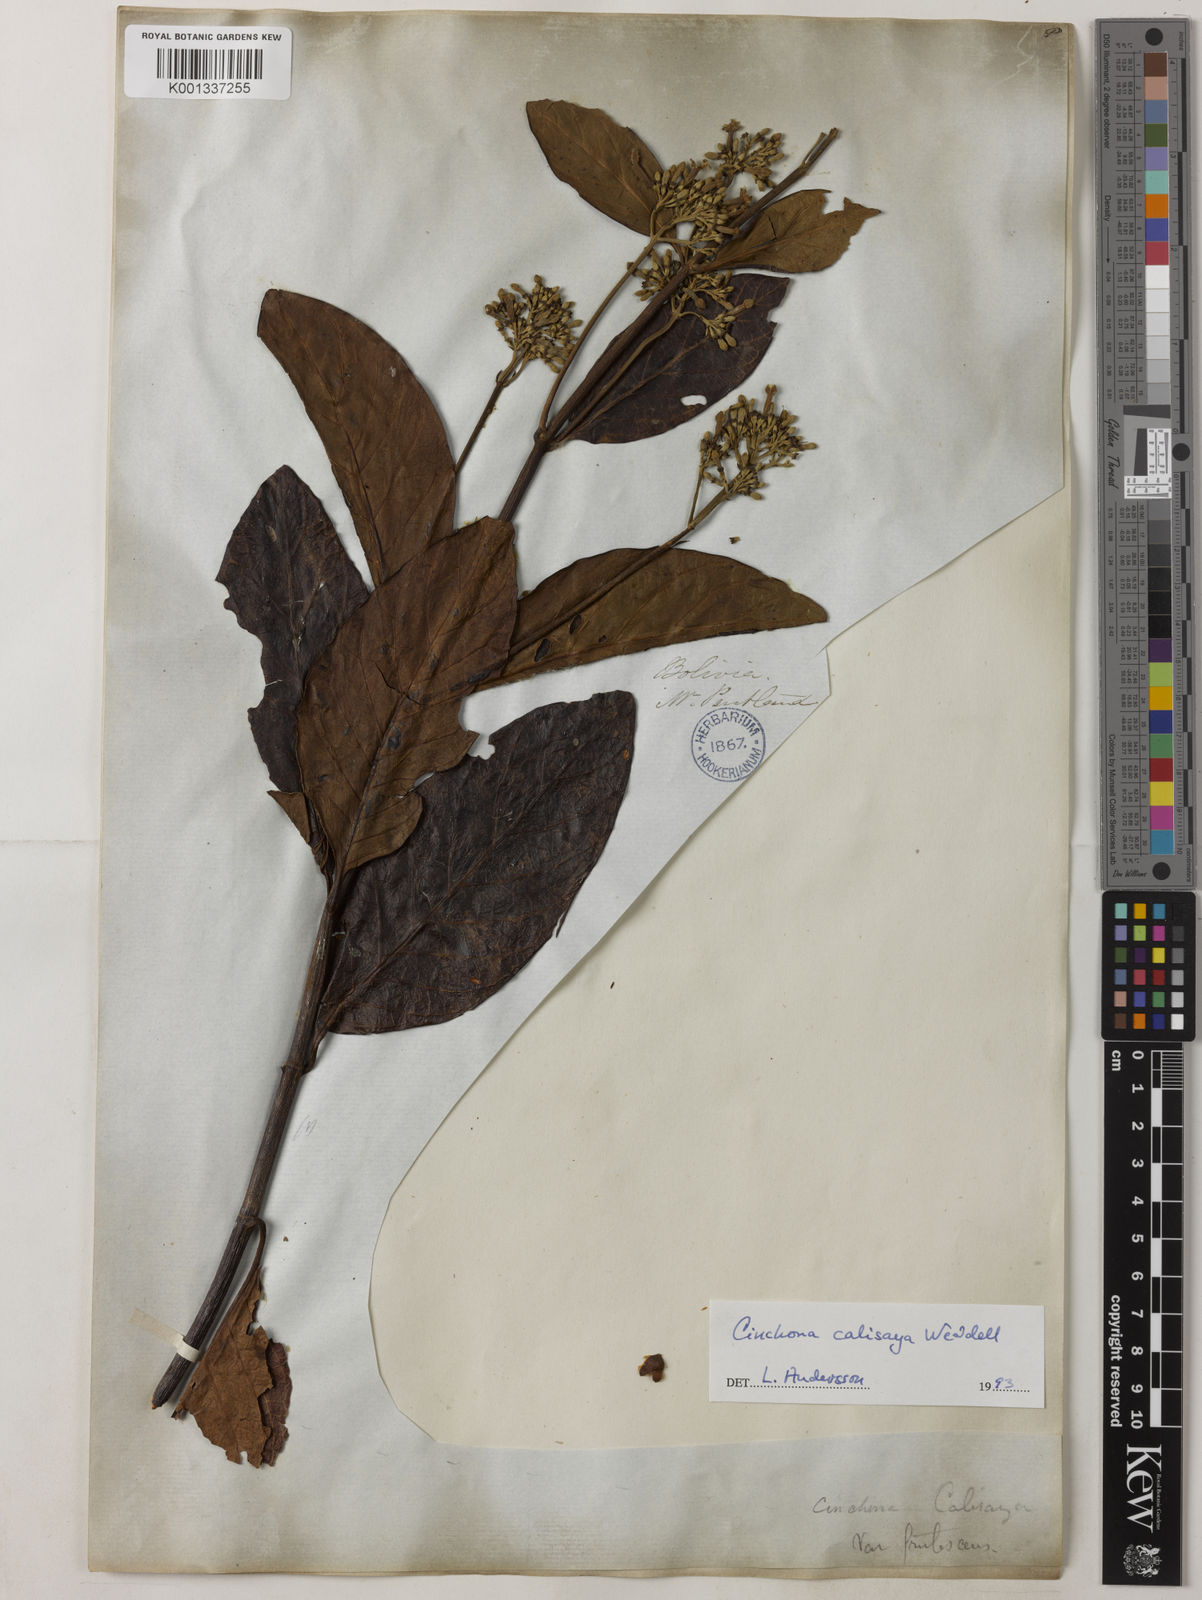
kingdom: Plantae
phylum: Tracheophyta
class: Magnoliopsida
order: Gentianales
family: Rubiaceae
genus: Cinchona
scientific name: Cinchona calisaya
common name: Ledgerbark
